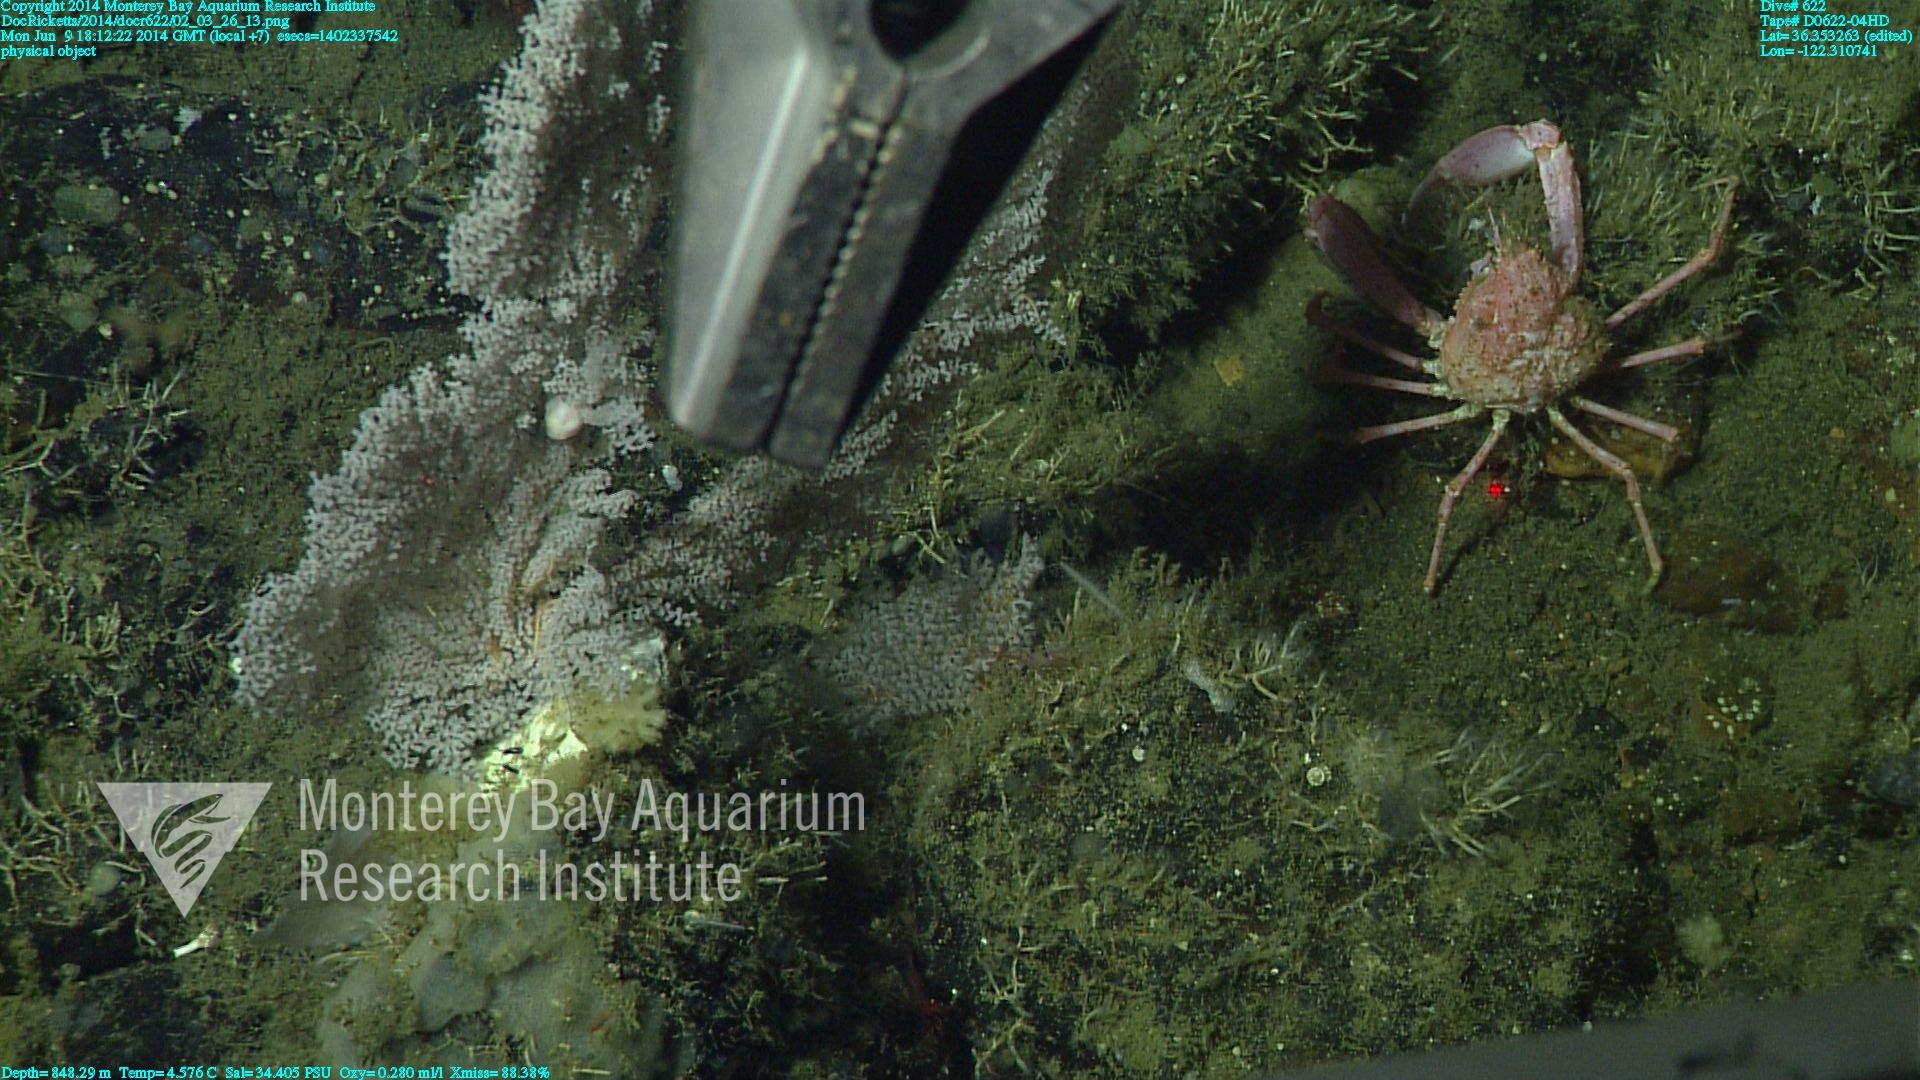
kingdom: Animalia
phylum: Cnidaria
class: Anthozoa
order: Scleralcyonacea
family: Primnoidae
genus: Parastenella
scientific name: Parastenella
